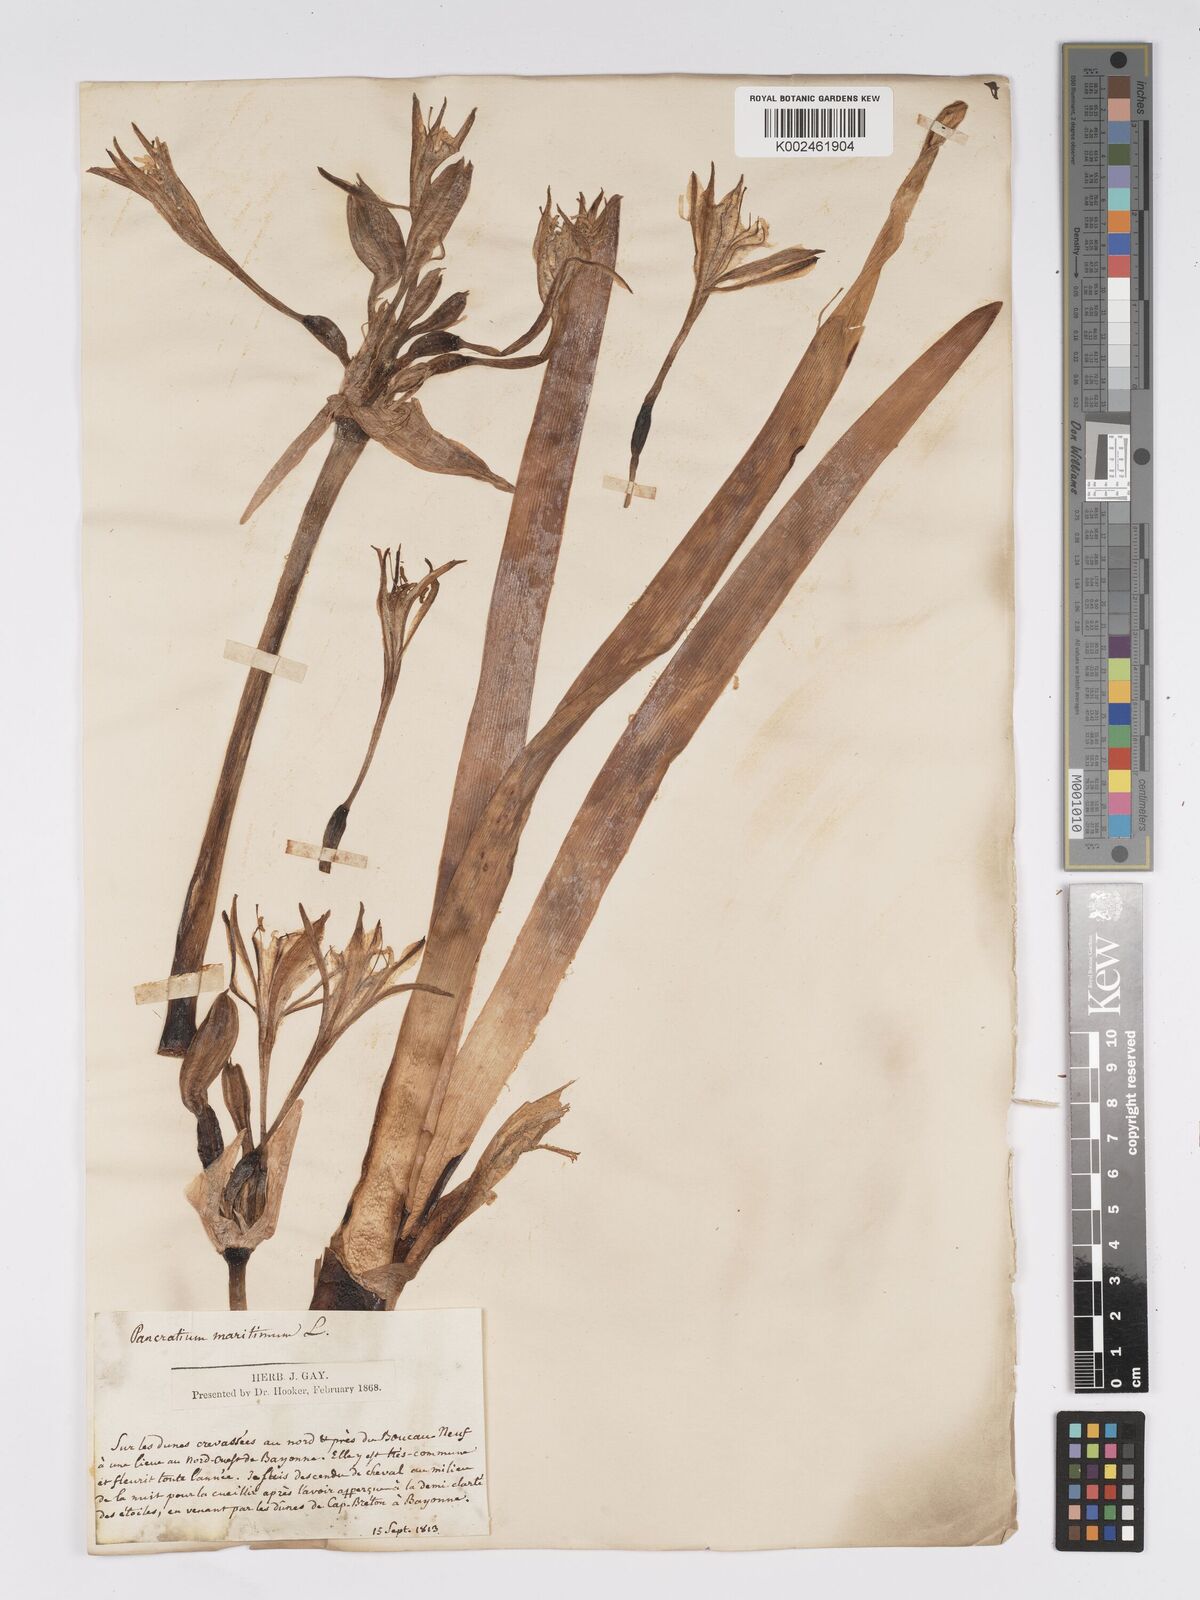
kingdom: Plantae
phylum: Tracheophyta
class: Liliopsida
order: Asparagales
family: Amaryllidaceae
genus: Pancratium
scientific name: Pancratium maritimum
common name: Sea-daffodil
